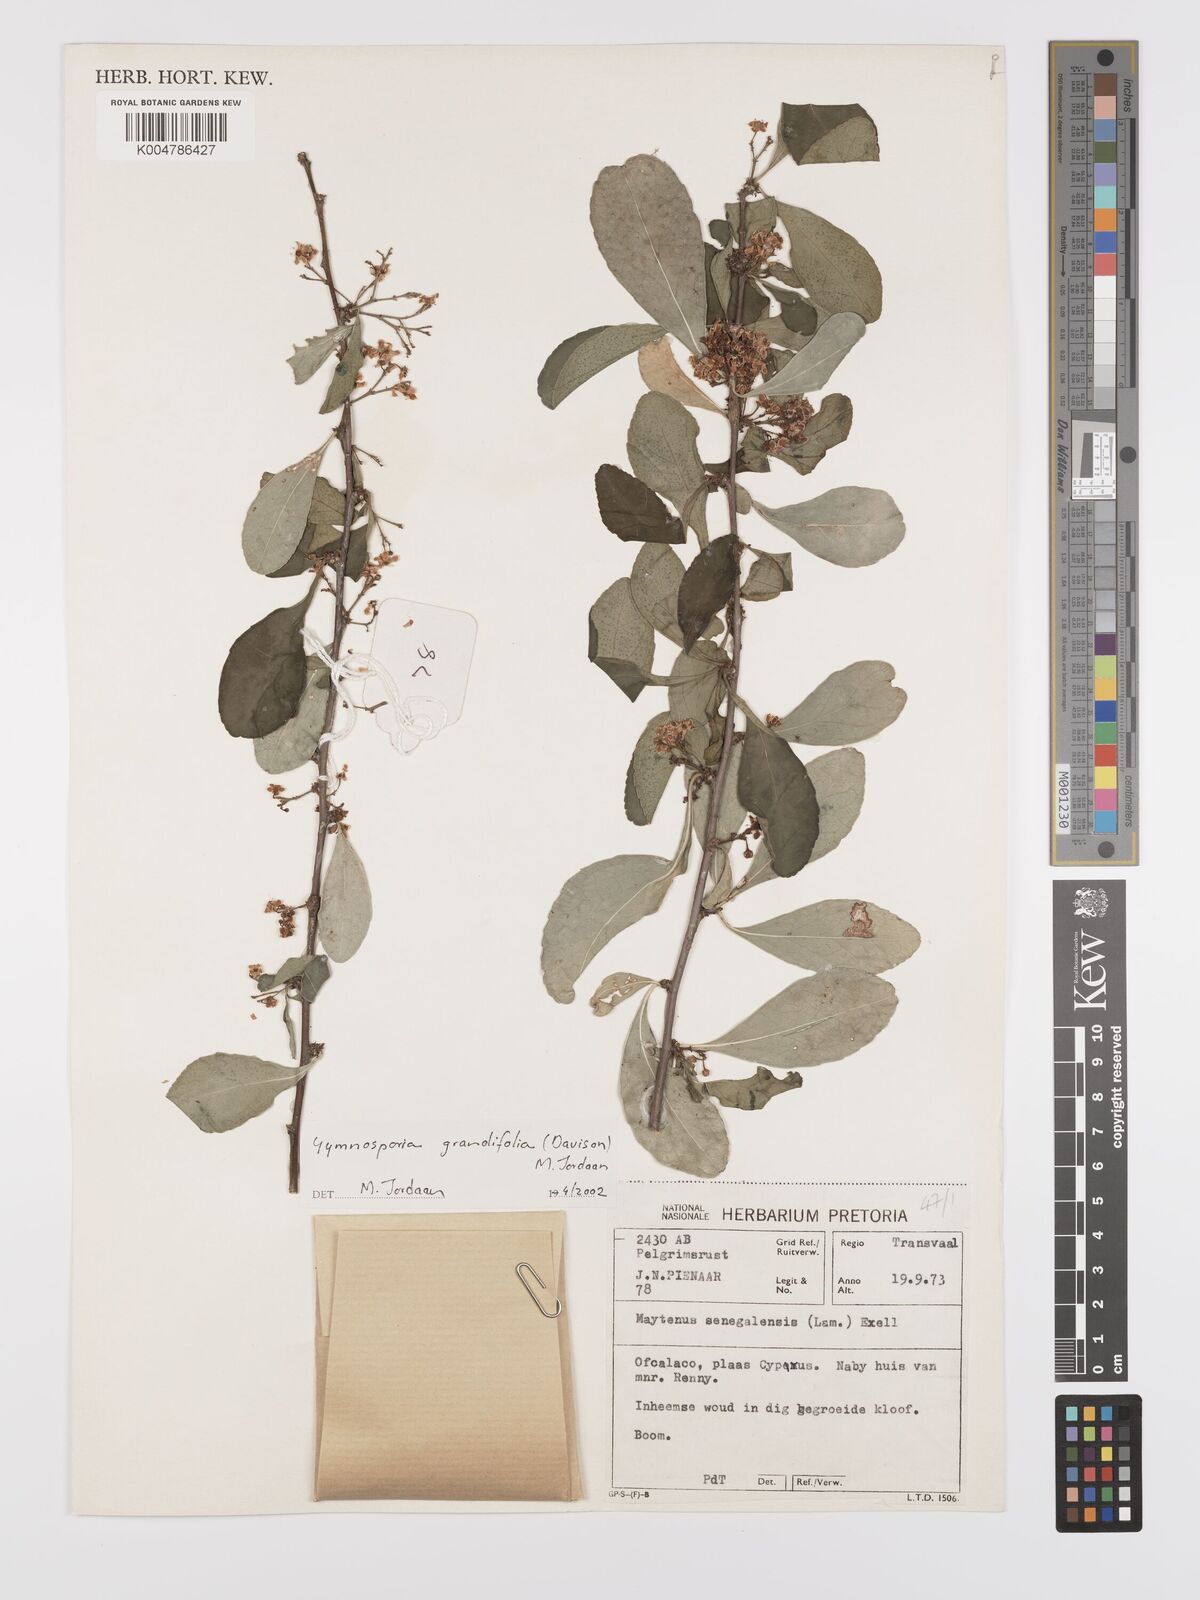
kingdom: Plantae
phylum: Tracheophyta
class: Magnoliopsida
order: Celastrales
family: Celastraceae
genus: Gymnosporia
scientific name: Gymnosporia grandifolia
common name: Large-fruited forest spike-thorn
